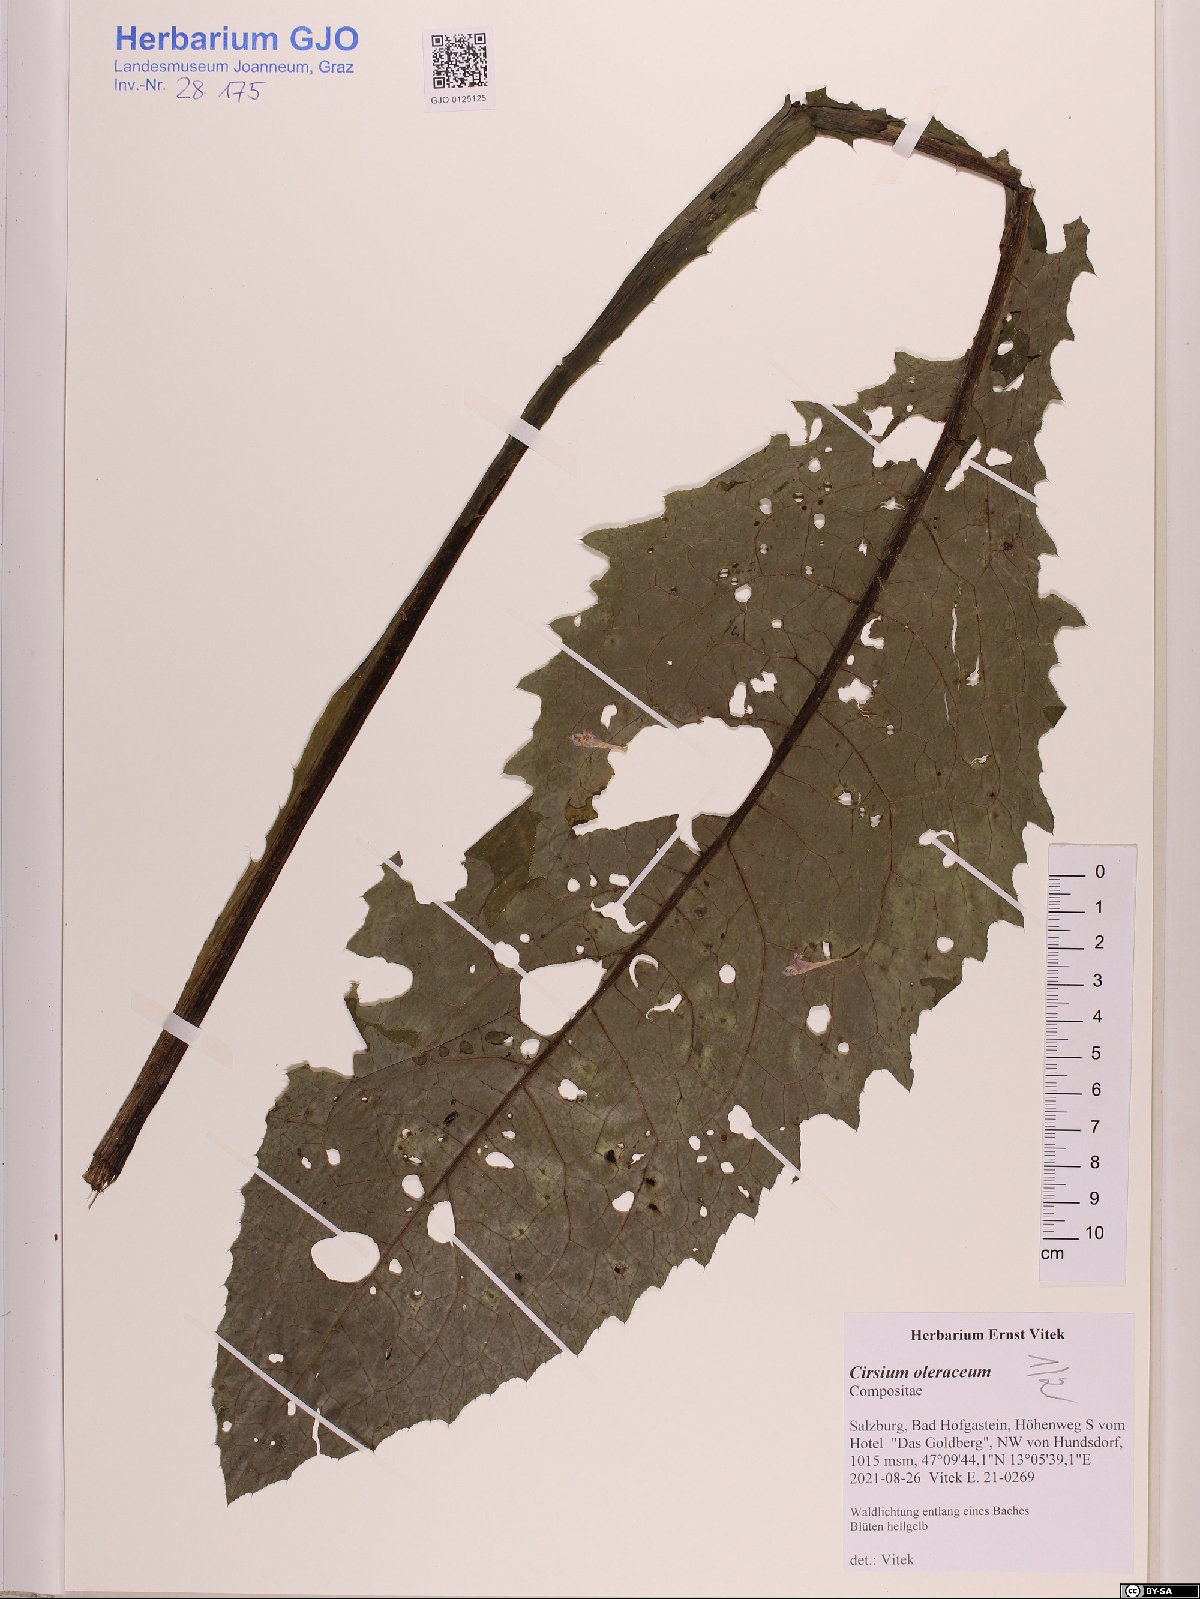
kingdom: Plantae
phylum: Tracheophyta
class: Magnoliopsida
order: Asterales
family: Asteraceae
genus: Cirsium
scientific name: Cirsium oleraceum
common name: Cabbage thistle
